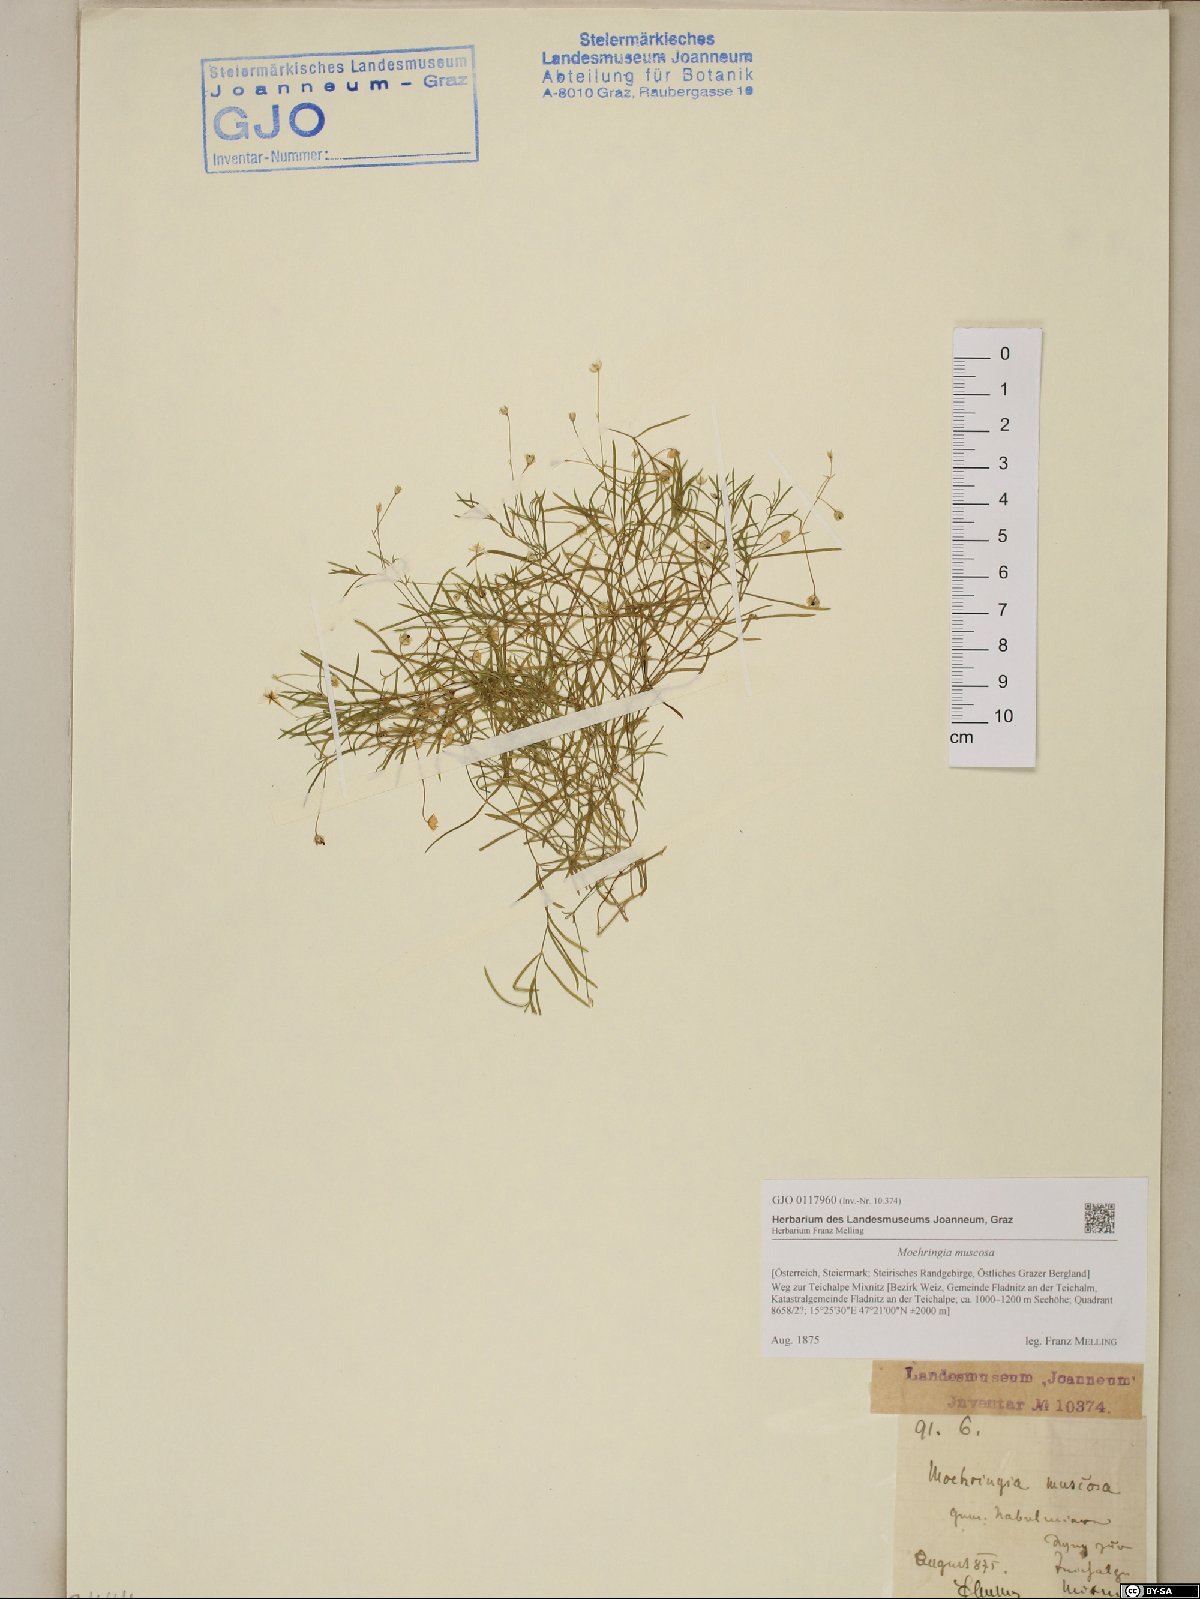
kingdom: Plantae
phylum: Tracheophyta
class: Magnoliopsida
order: Caryophyllales
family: Caryophyllaceae
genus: Moehringia
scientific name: Moehringia muscosa
